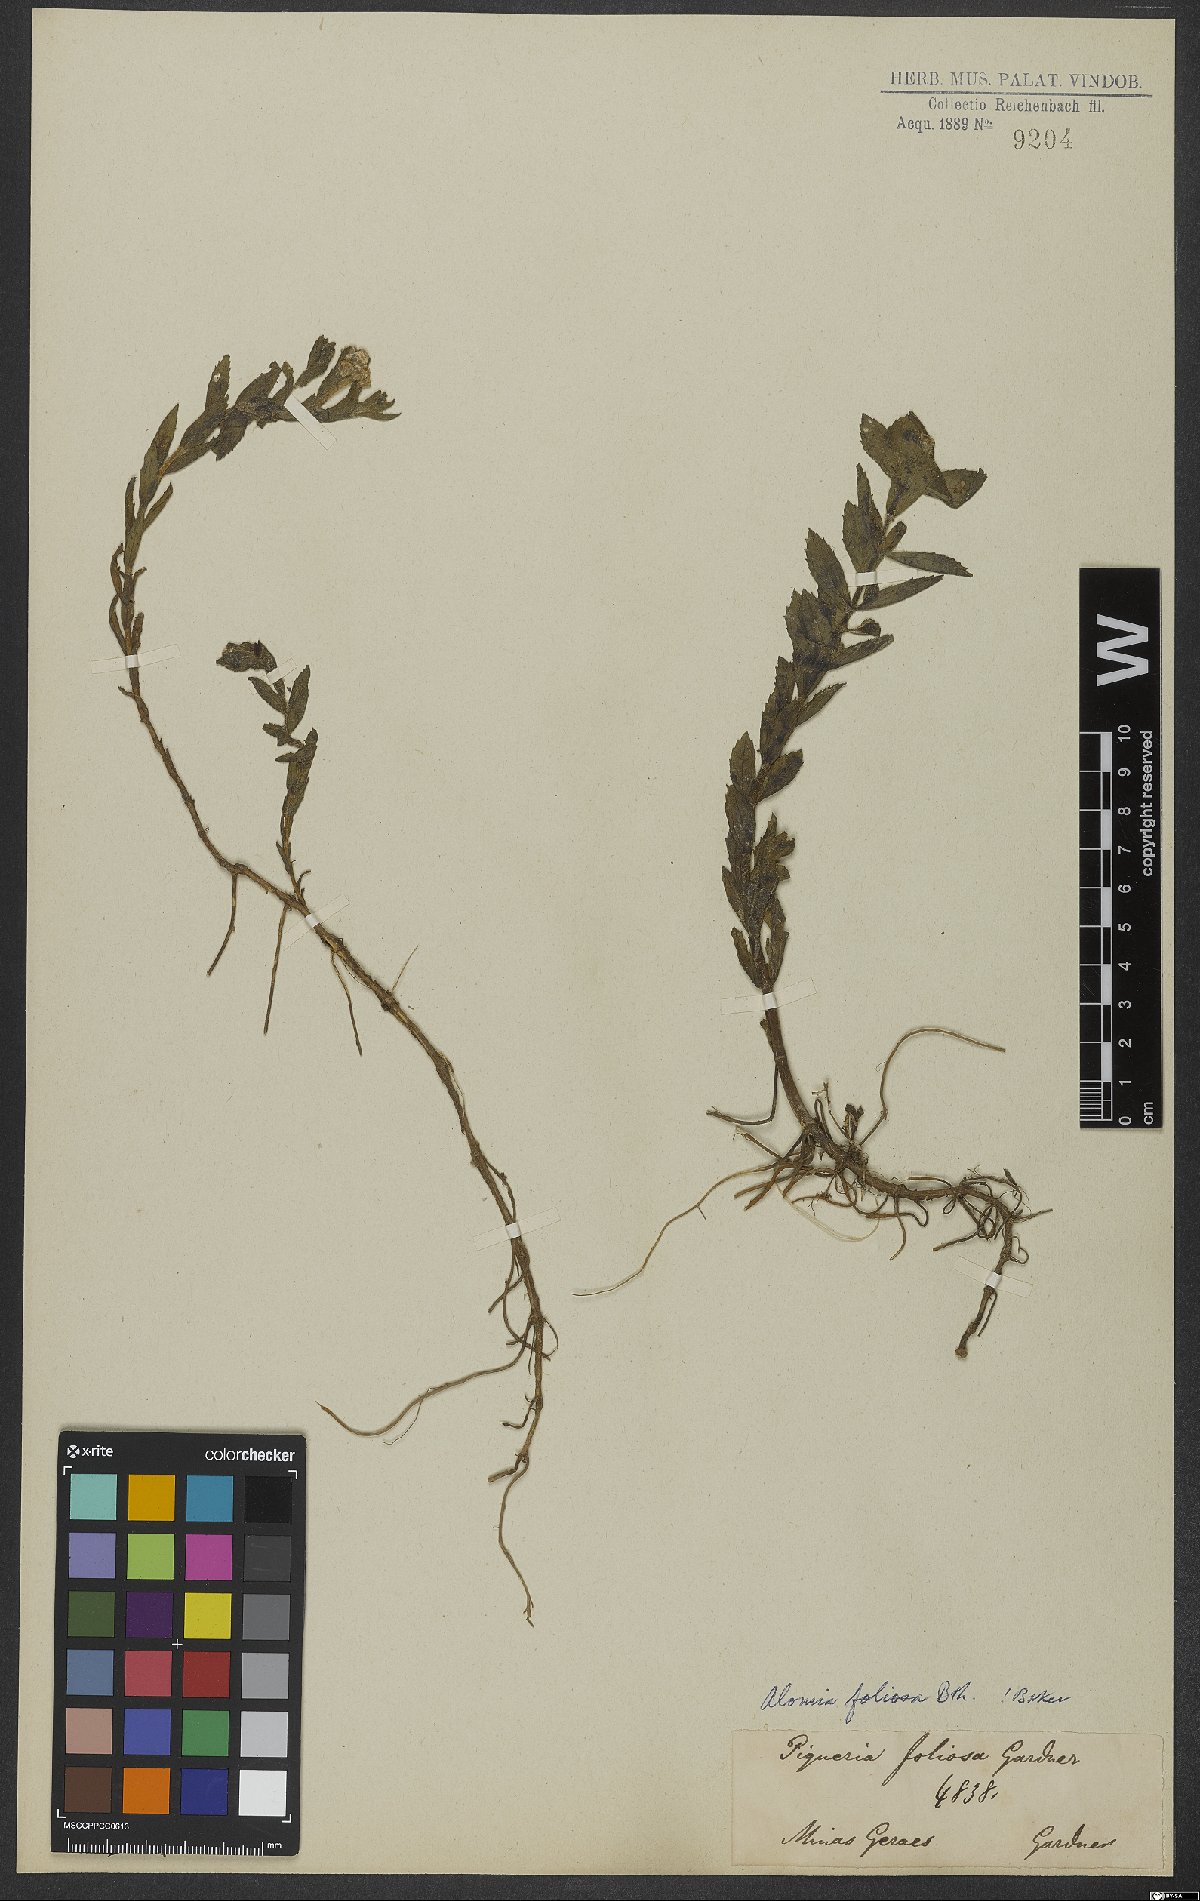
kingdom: Plantae
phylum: Tracheophyta
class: Magnoliopsida
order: Asterales
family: Asteraceae
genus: Teixeiranthus
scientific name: Teixeiranthus foliosus
